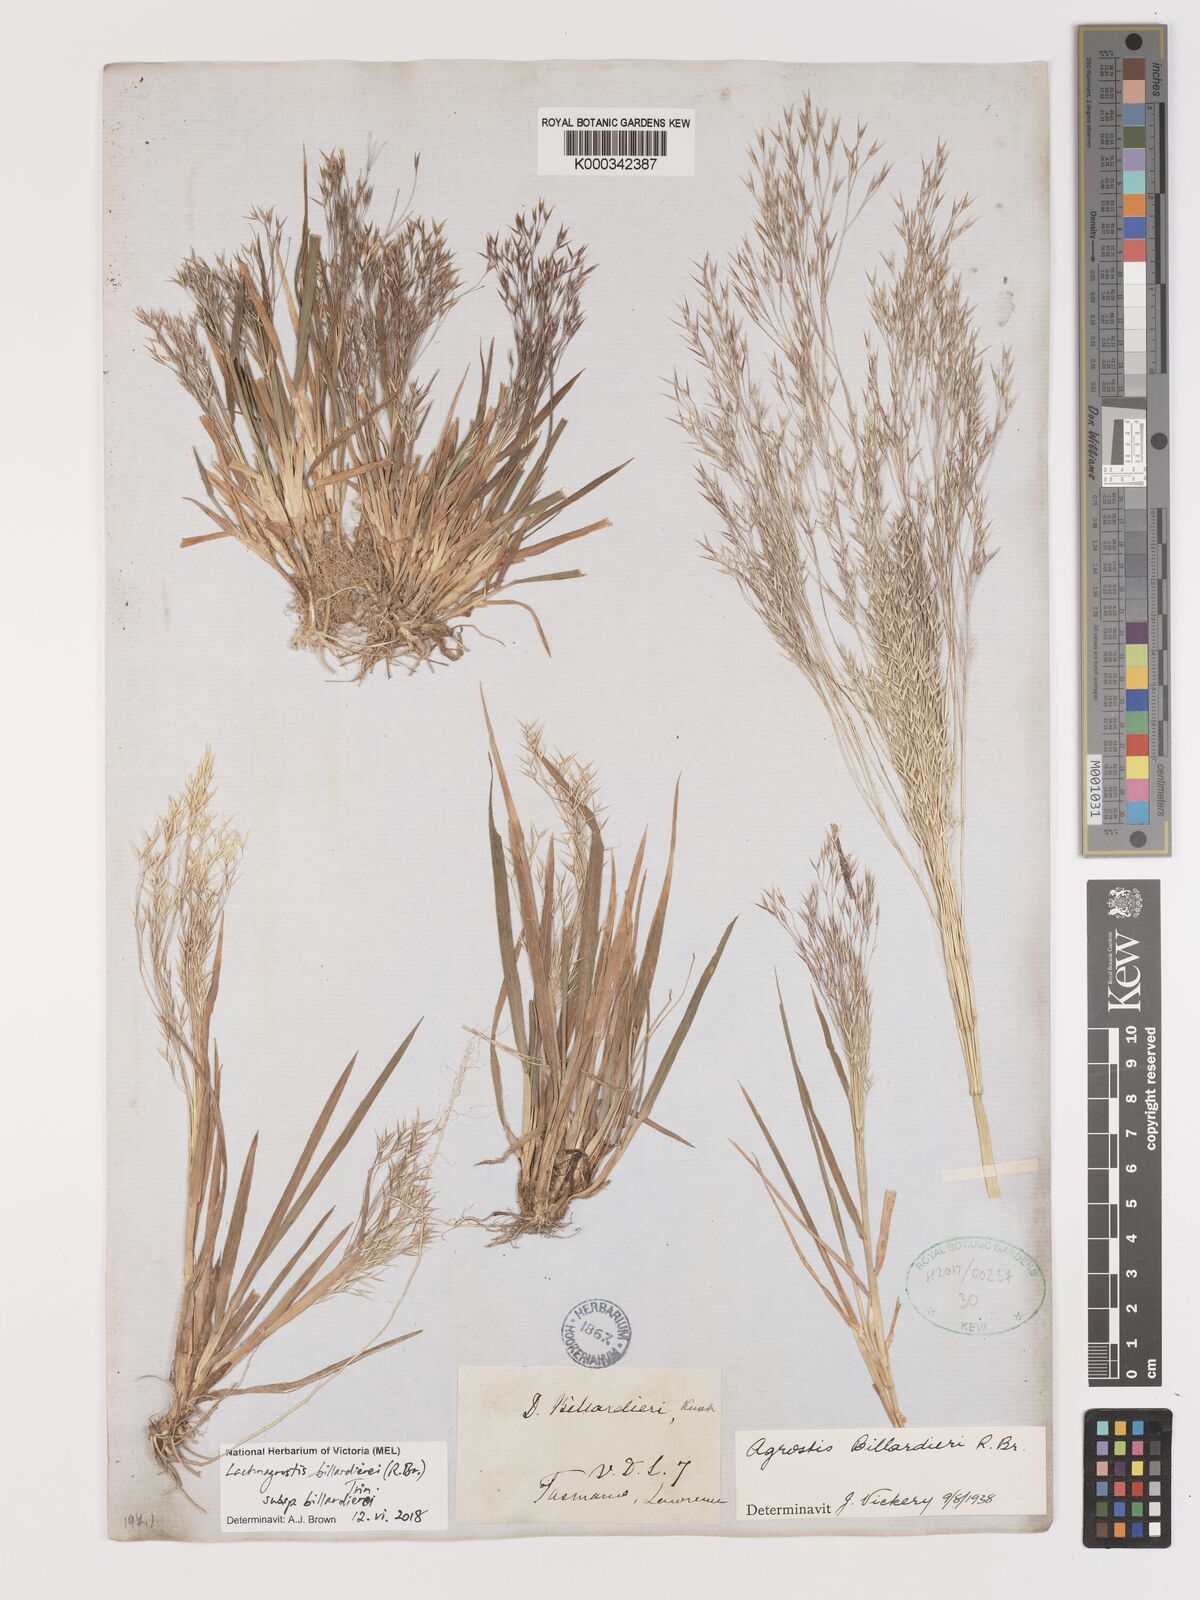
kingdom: Plantae
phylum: Tracheophyta
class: Liliopsida
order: Poales
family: Poaceae
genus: Lachnagrostis
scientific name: Lachnagrostis billardierei
